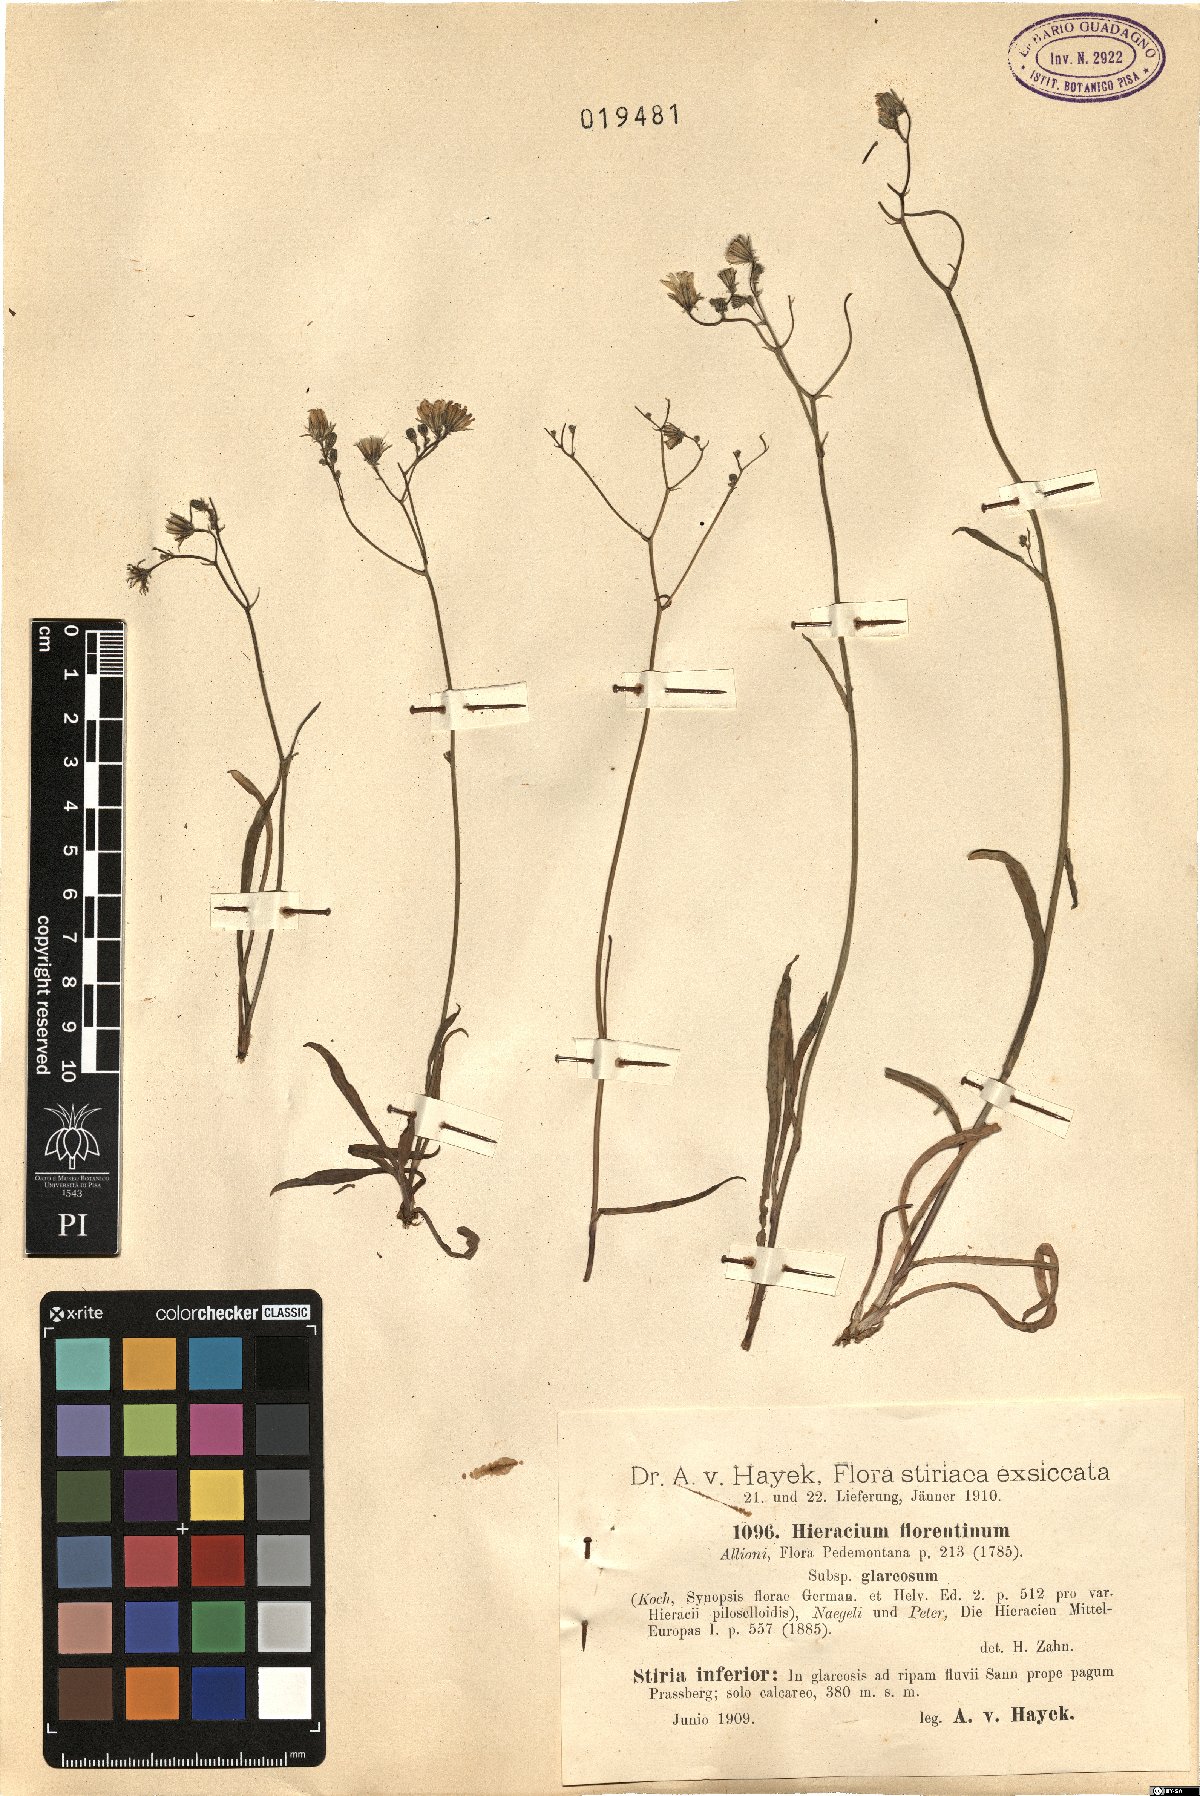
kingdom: Plantae
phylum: Tracheophyta
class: Magnoliopsida
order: Asterales
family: Asteraceae
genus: Pilosella
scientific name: Pilosella piloselloides
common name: Glaucous king-devil
